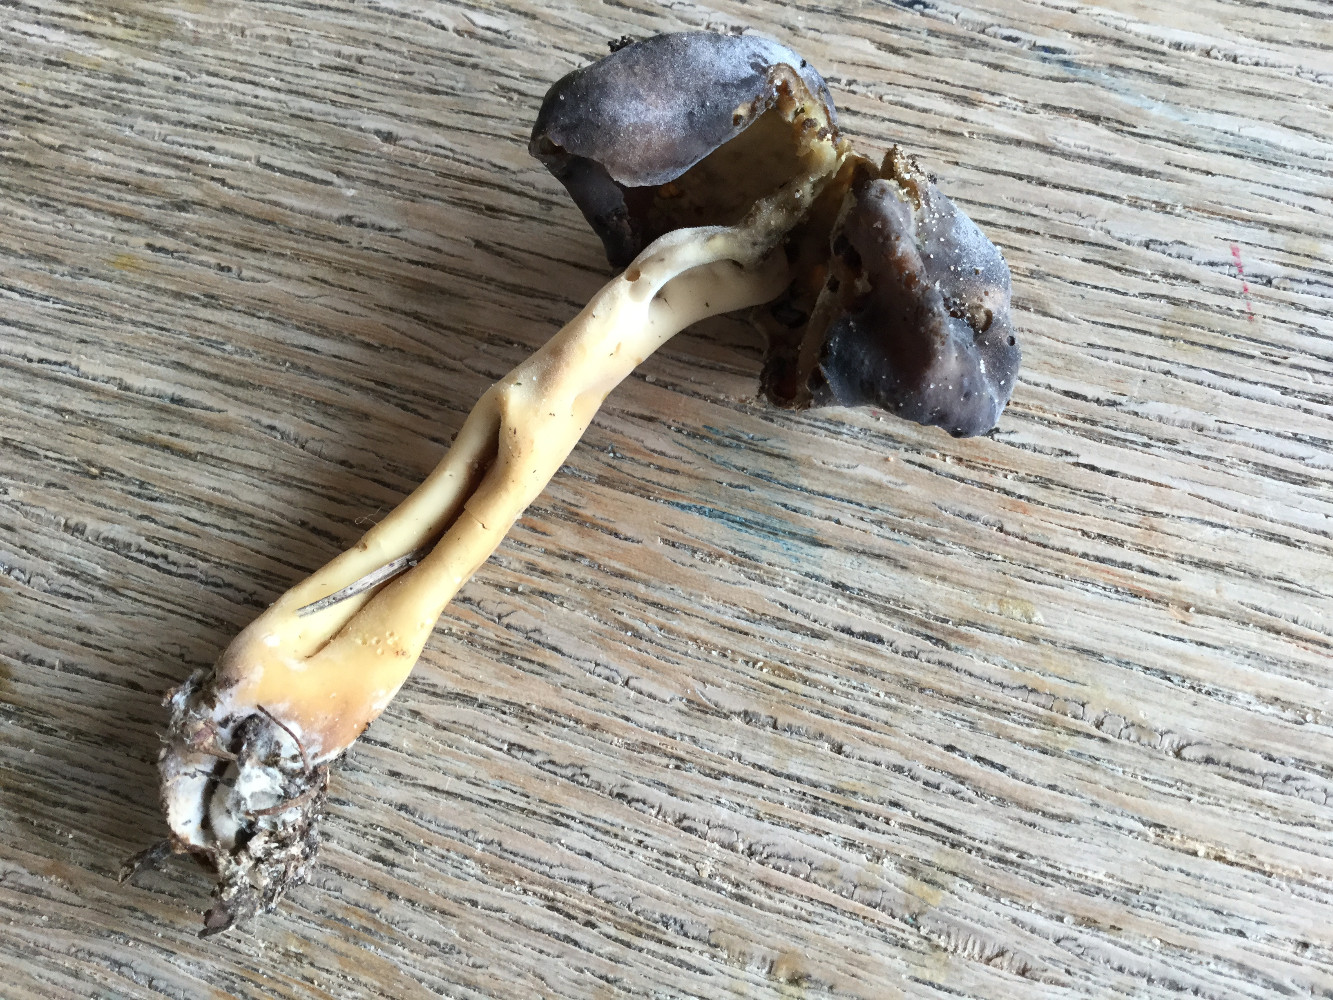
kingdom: Fungi
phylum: Ascomycota
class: Pezizomycetes
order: Pezizales
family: Helvellaceae
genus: Helvella
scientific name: Helvella
